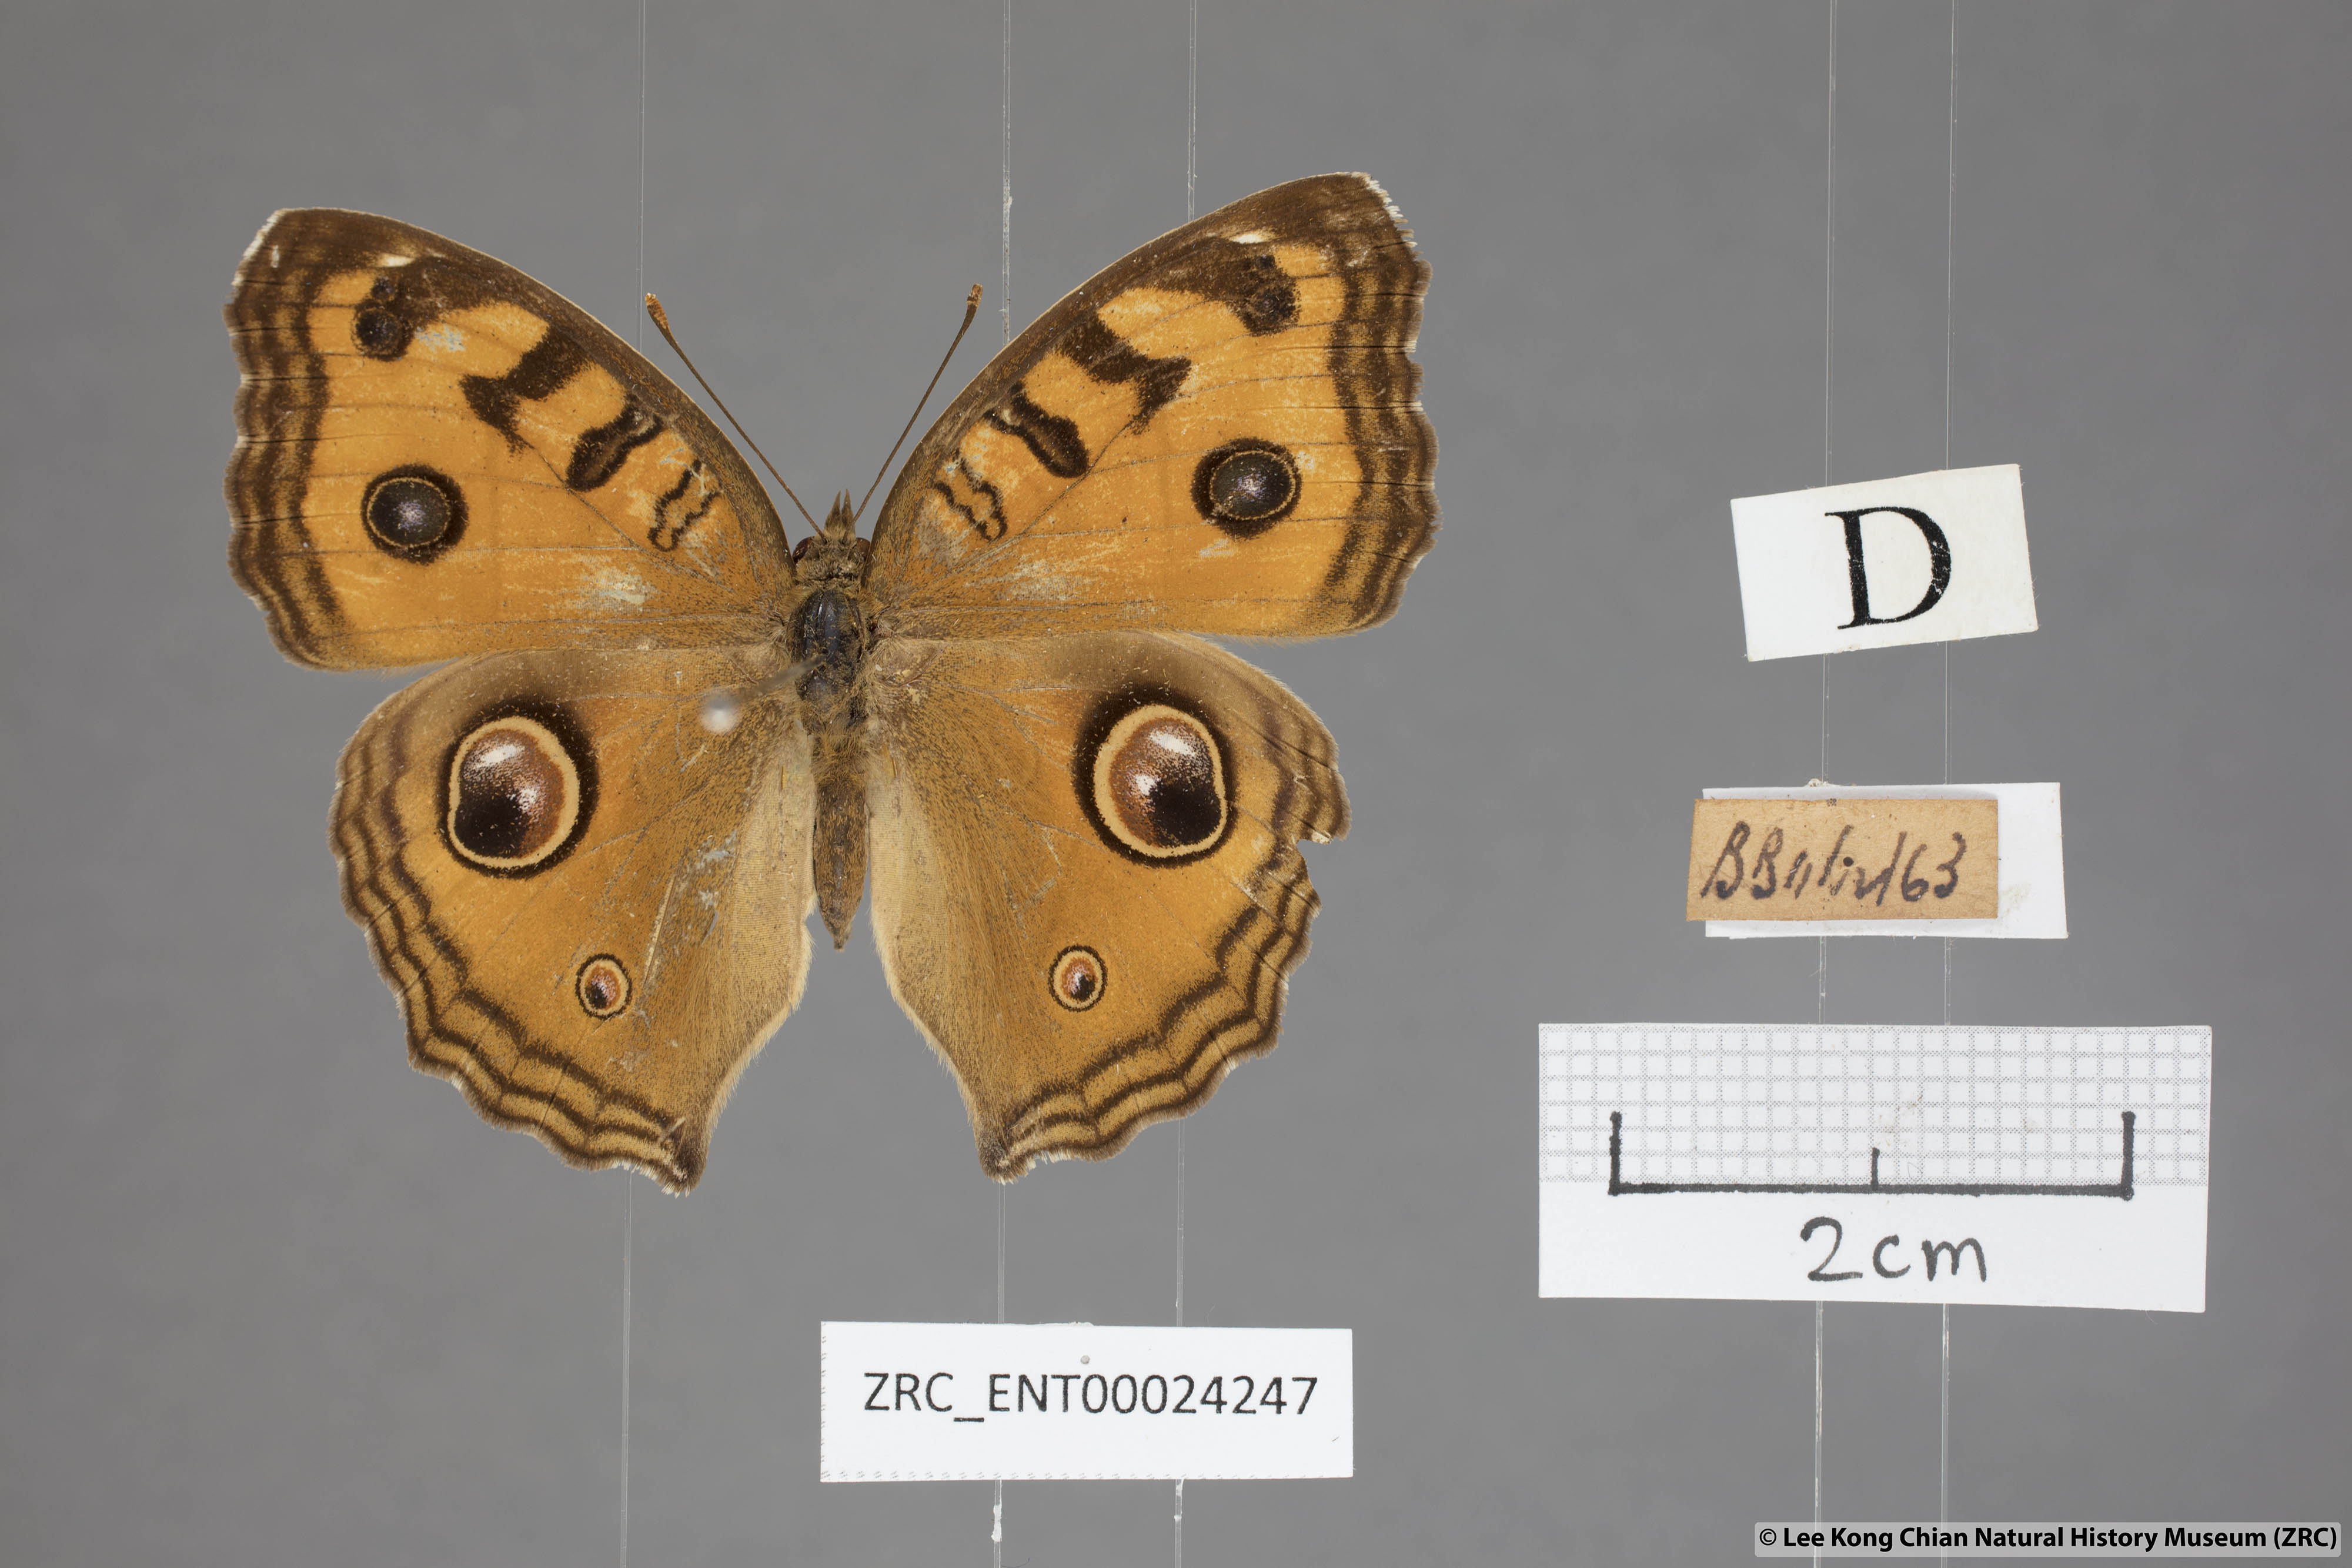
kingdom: Animalia
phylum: Arthropoda
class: Insecta
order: Lepidoptera
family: Nymphalidae
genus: Junonia
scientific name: Junonia almana
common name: Peacock pansy
